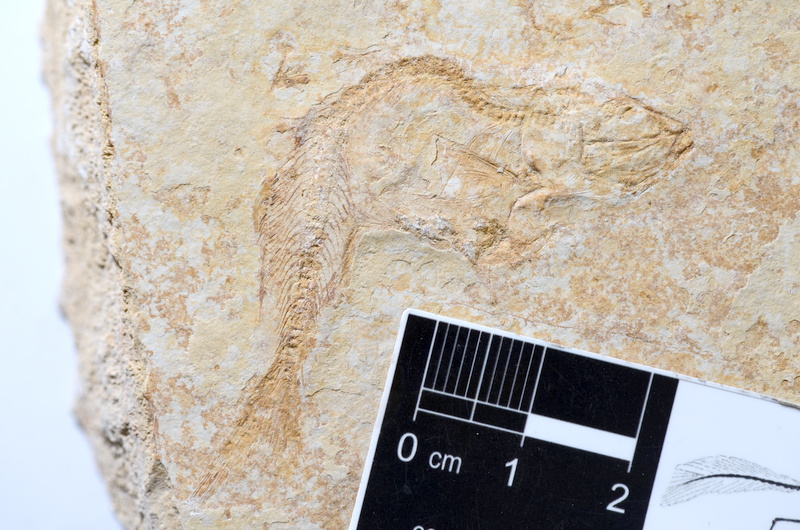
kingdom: Animalia
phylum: Chordata
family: Ascalaboidae
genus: Tharsis
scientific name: Tharsis dubius
